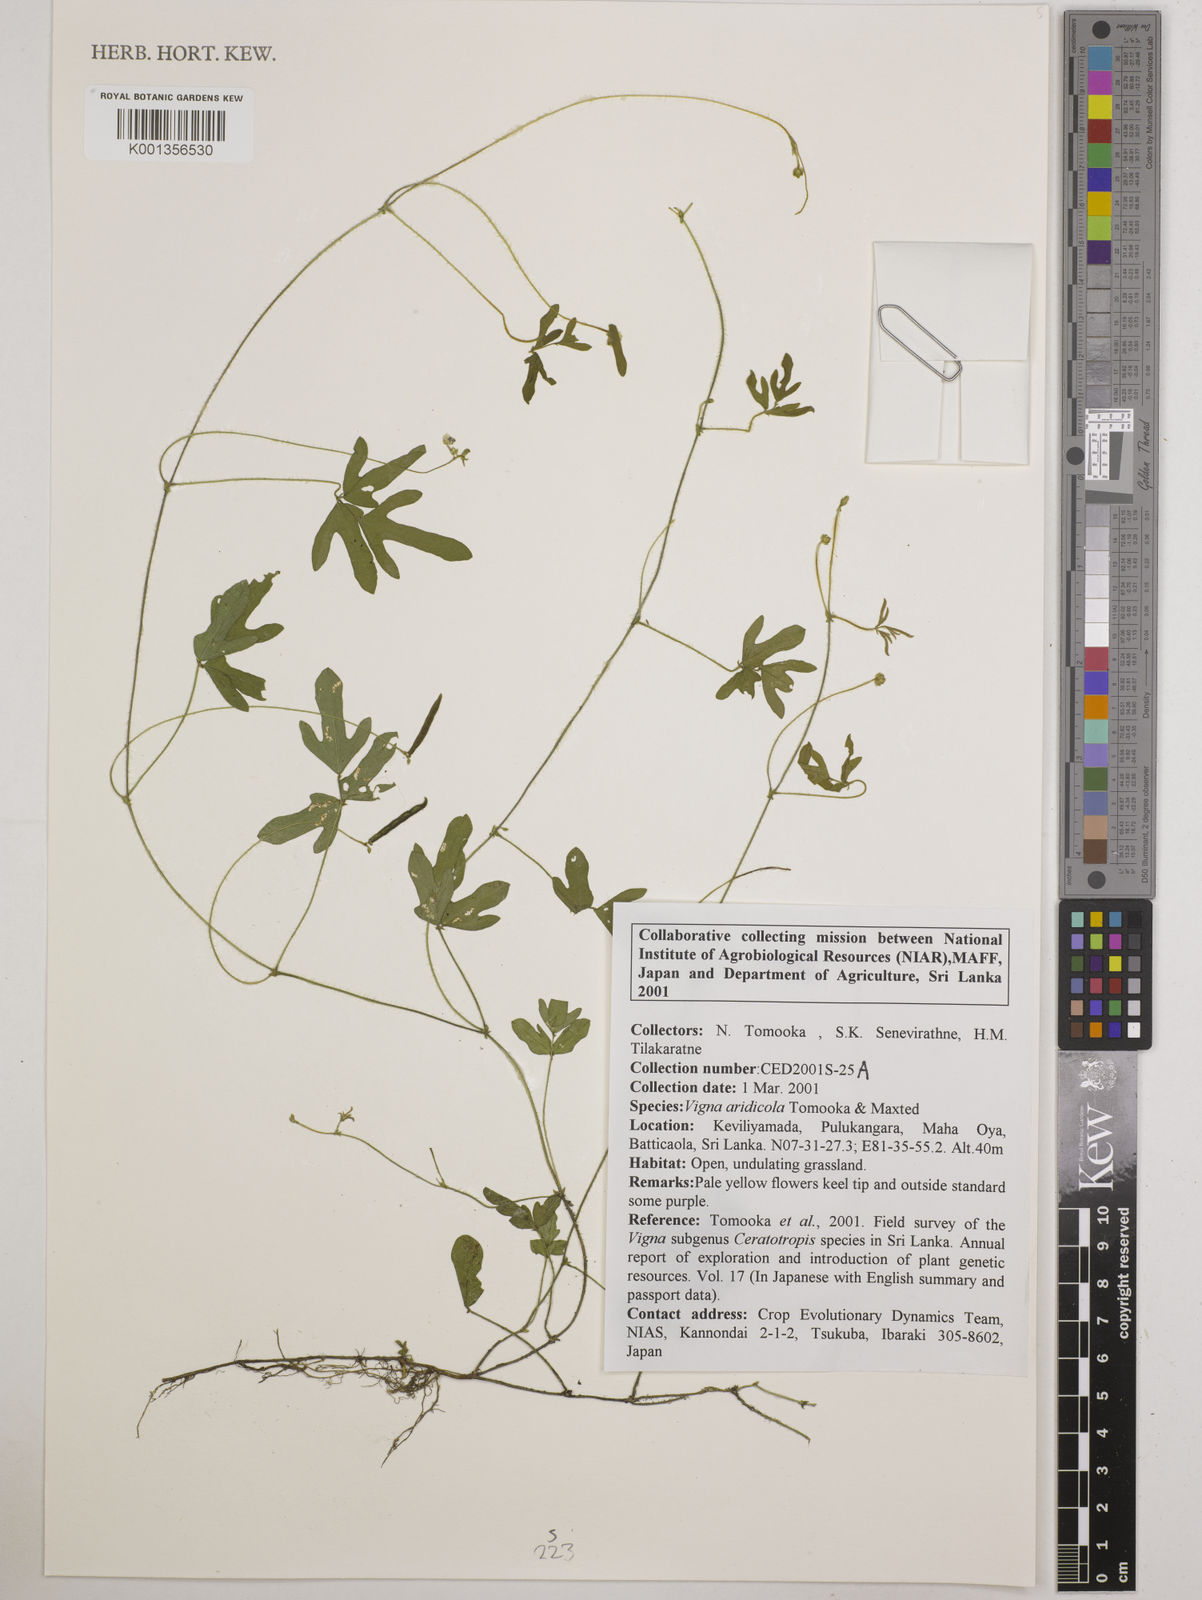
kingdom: Plantae
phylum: Tracheophyta
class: Magnoliopsida
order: Fabales
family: Fabaceae
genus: Vigna
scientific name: Vigna
